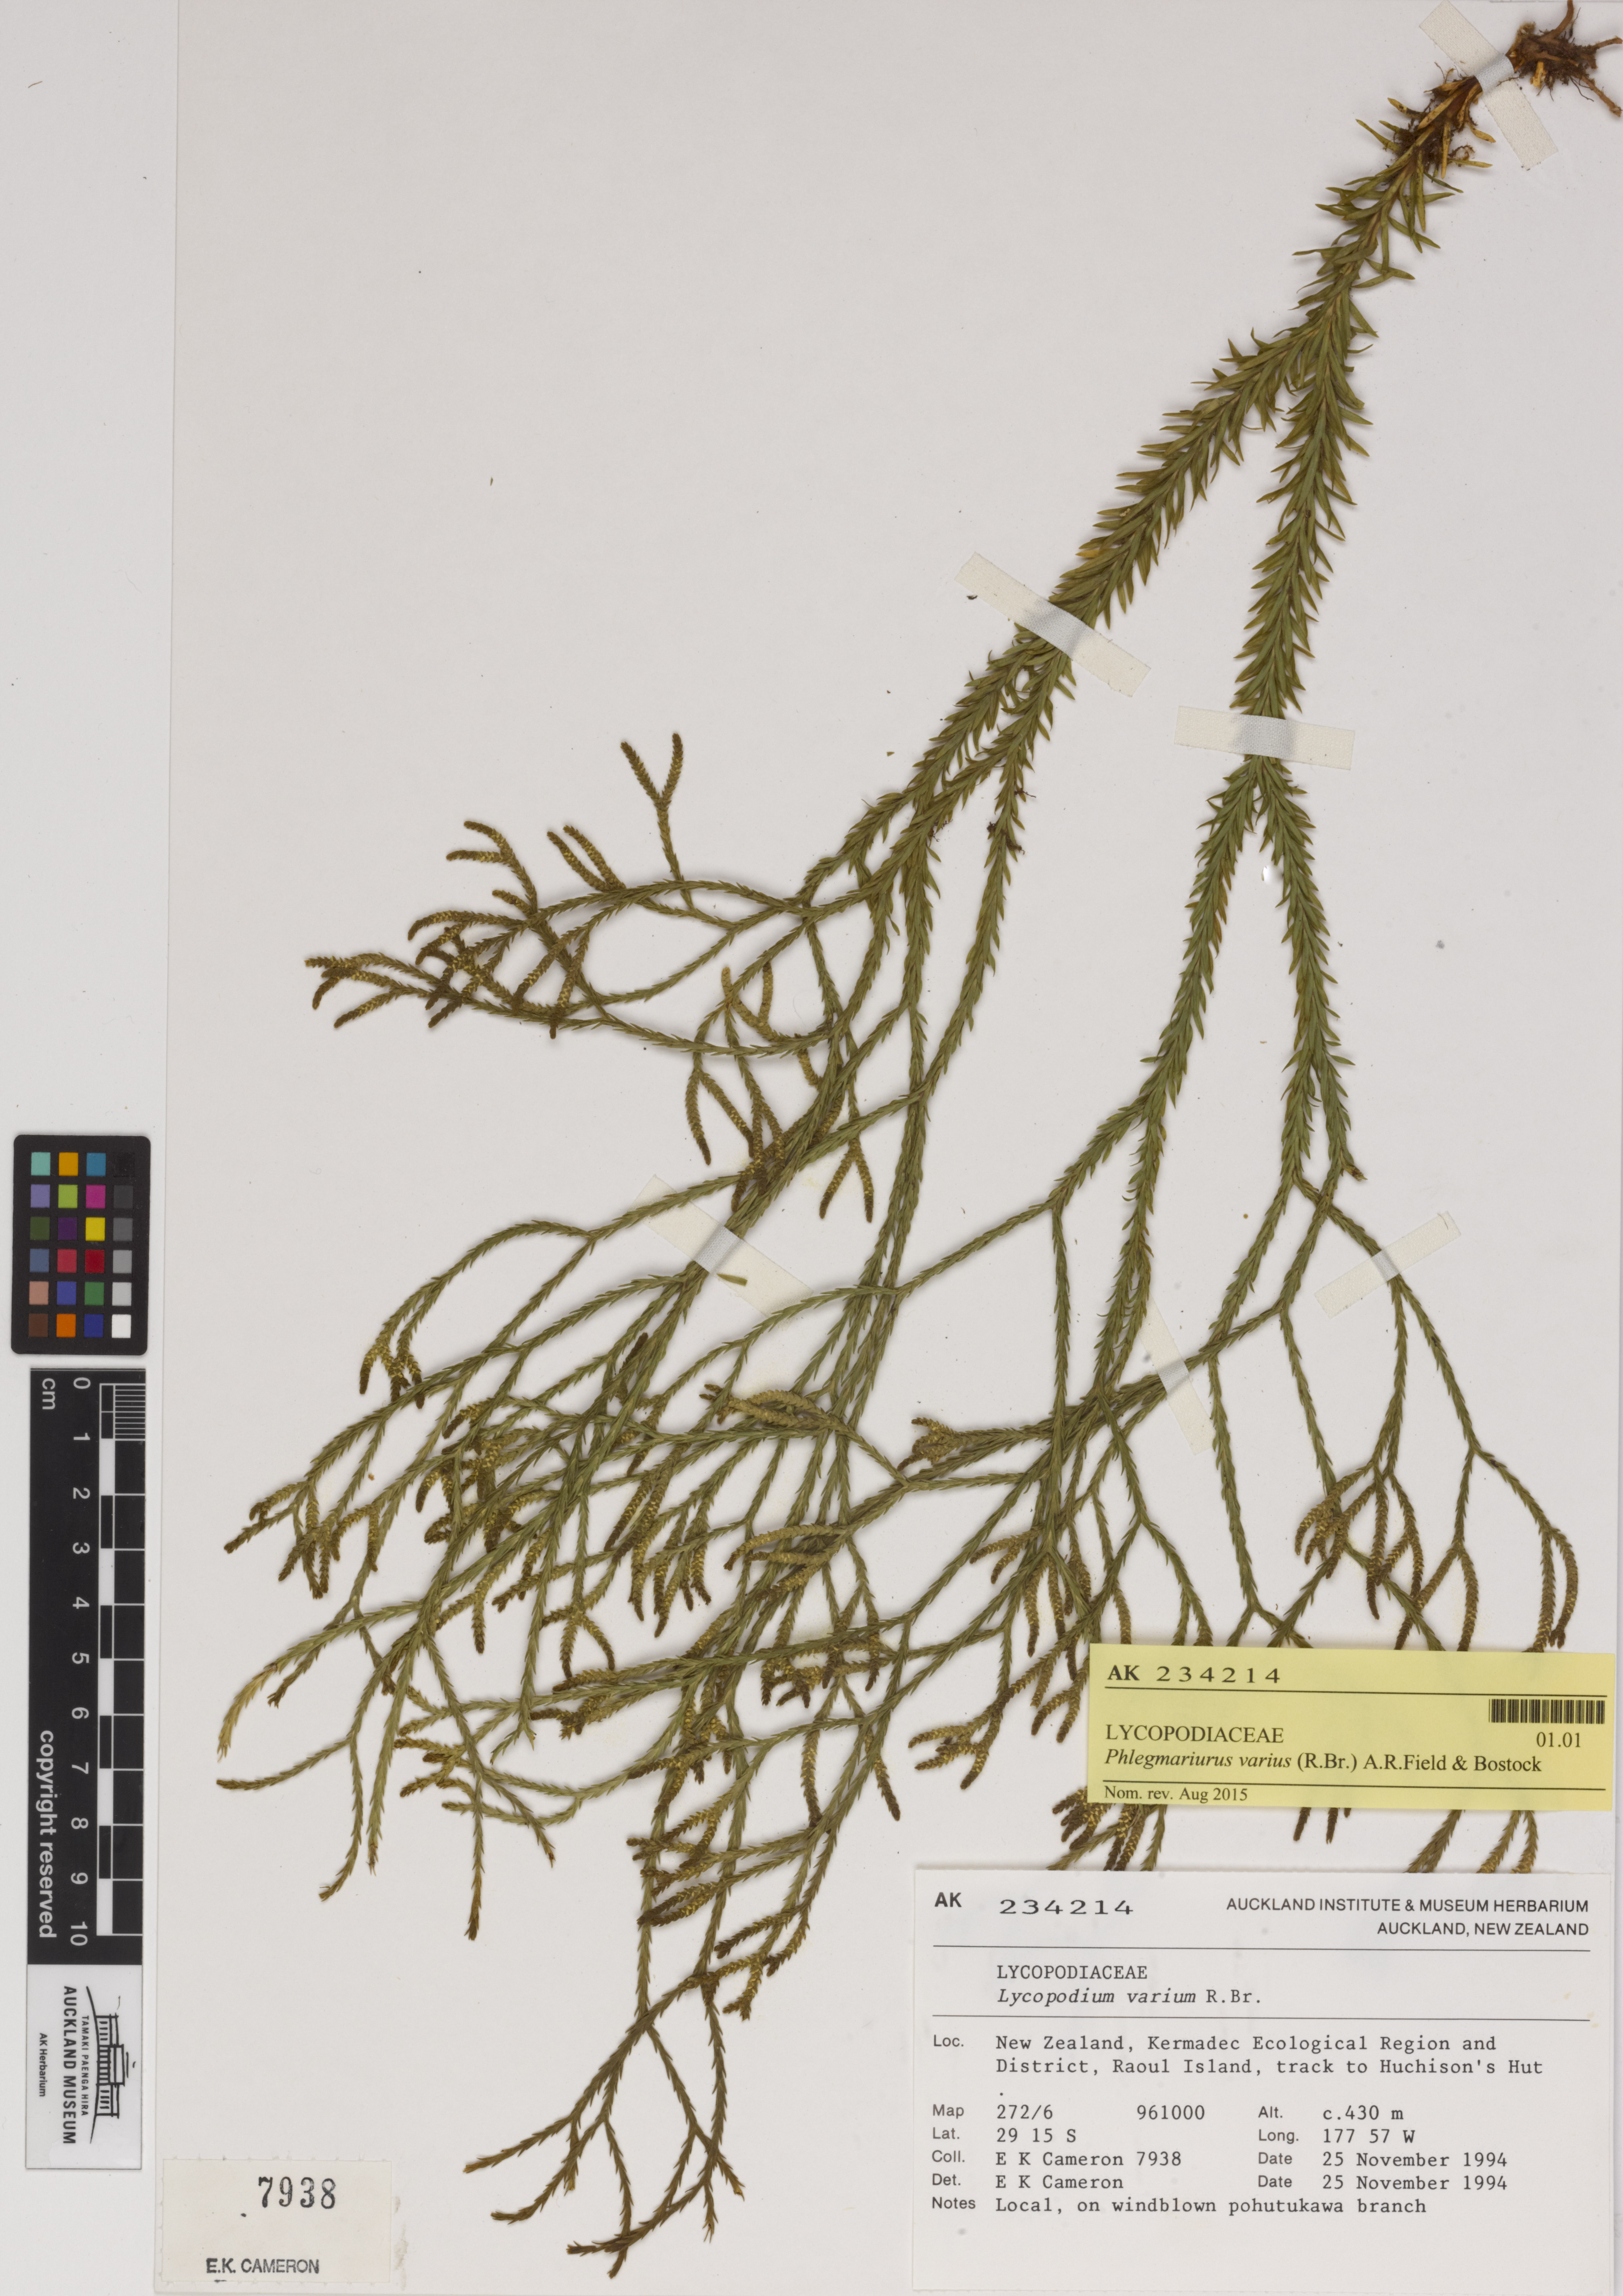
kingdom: Plantae
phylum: Tracheophyta
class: Lycopodiopsida
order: Lycopodiales
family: Lycopodiaceae
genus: Phlegmariurus
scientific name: Phlegmariurus billardierei
